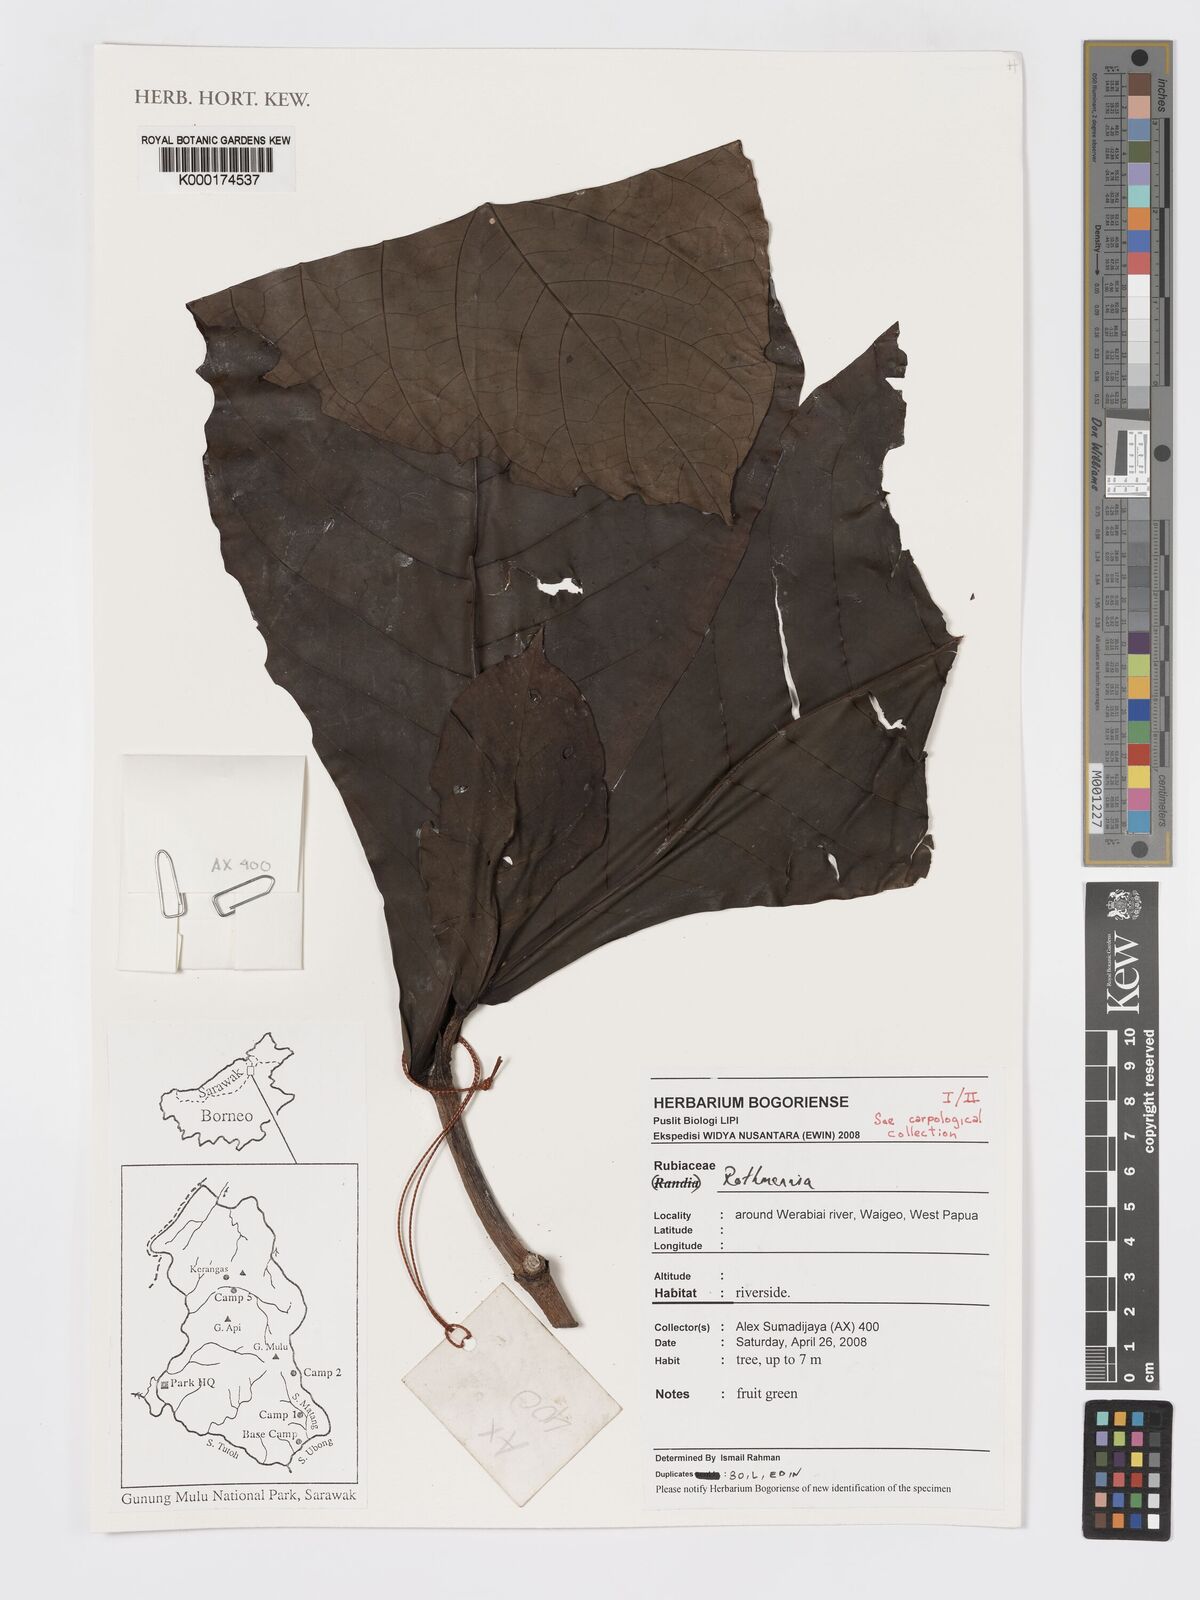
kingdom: Plantae
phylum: Tracheophyta
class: Magnoliopsida
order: Gentianales
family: Rubiaceae
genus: Ridsdalea
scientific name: Ridsdalea
